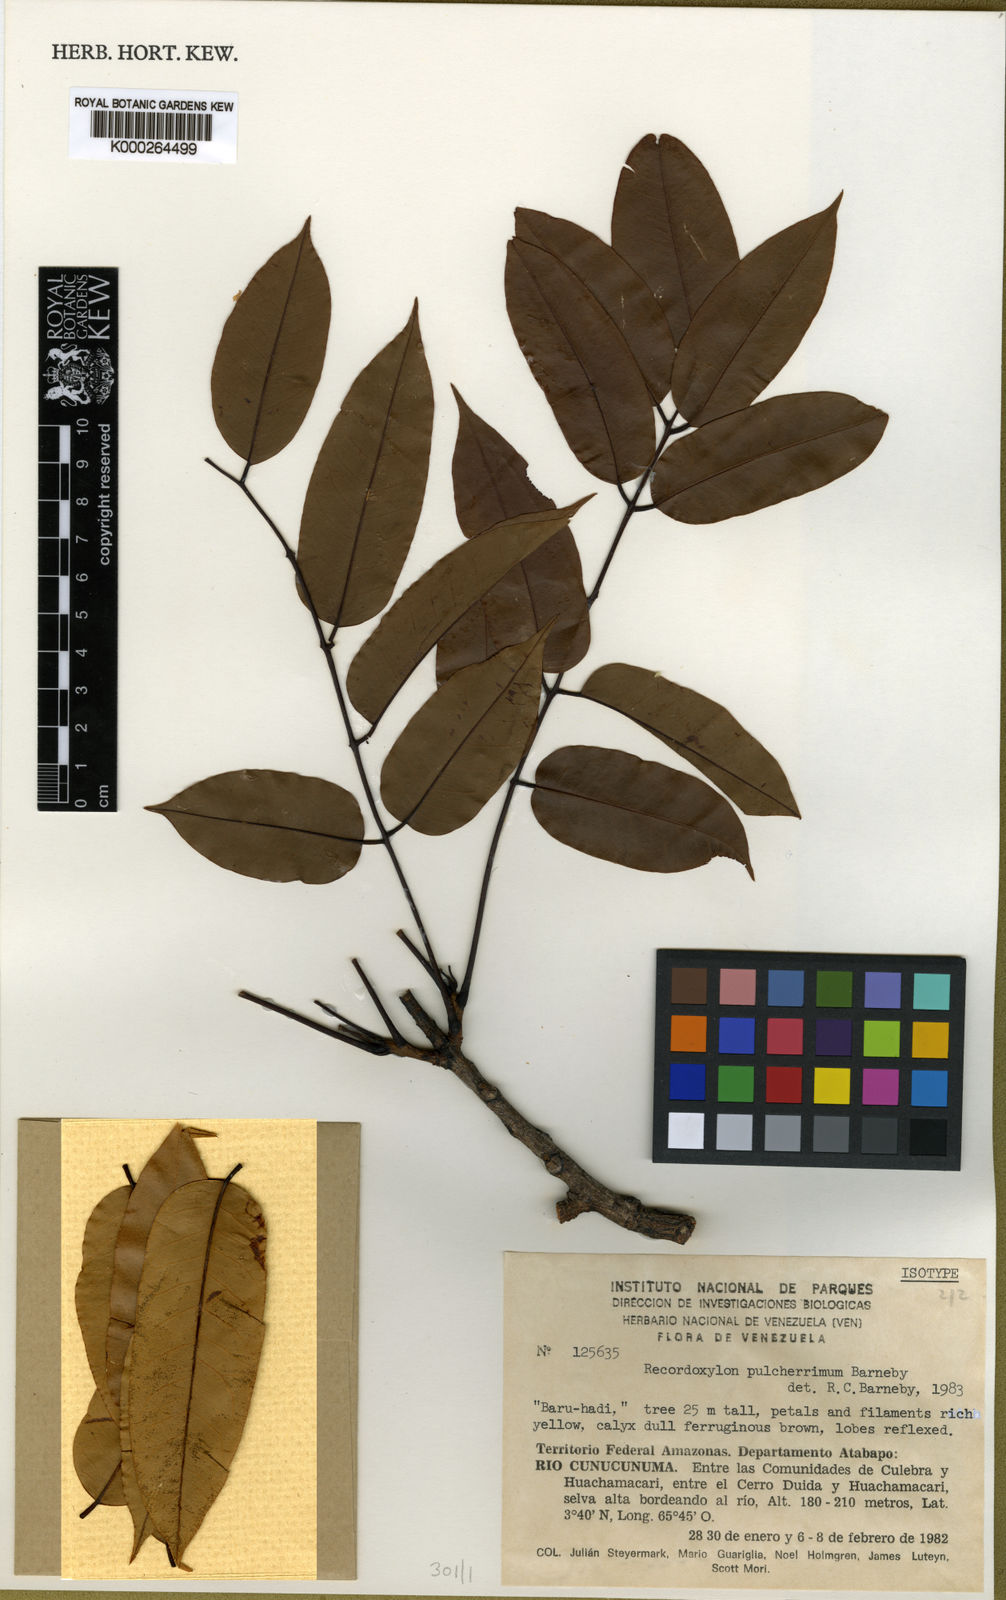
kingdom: Plantae
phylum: Tracheophyta
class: Magnoliopsida
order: Fabales
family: Fabaceae
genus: Recordoxylon
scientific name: Recordoxylon pulcherrimum
